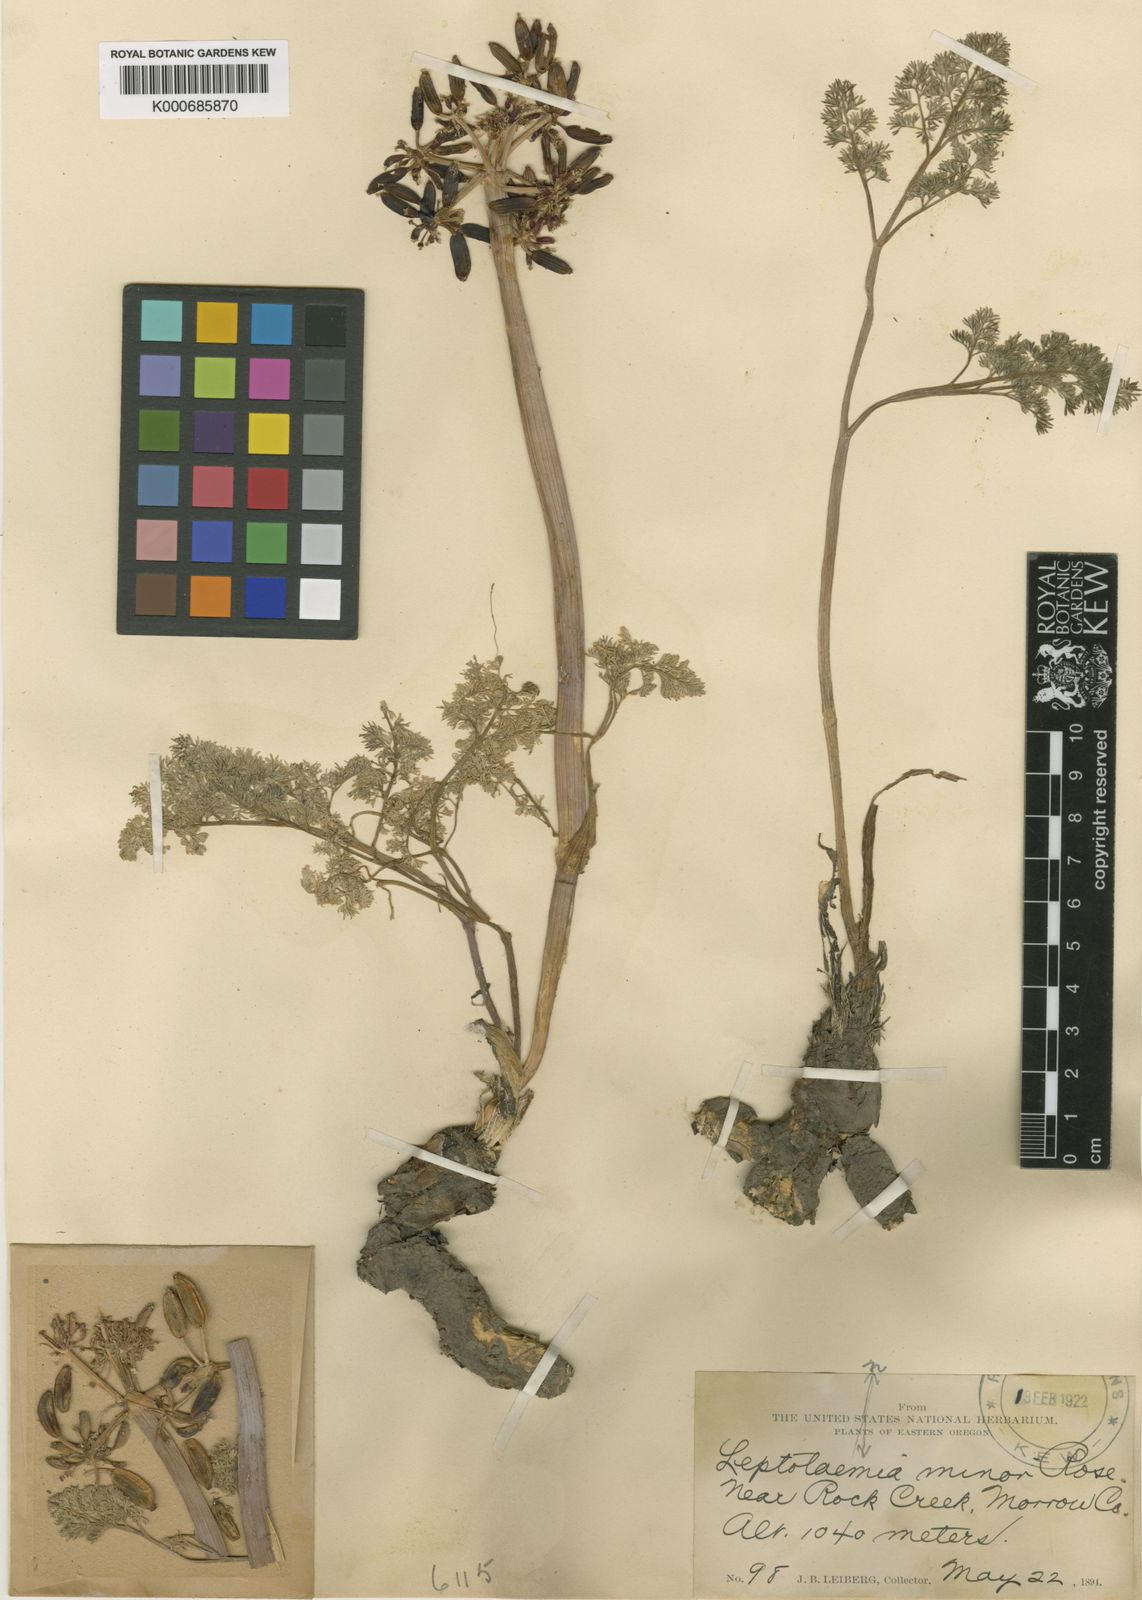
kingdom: Plantae
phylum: Tracheophyta
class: Magnoliopsida
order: Apiales
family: Apiaceae
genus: Lomatium
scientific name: Lomatium minus
